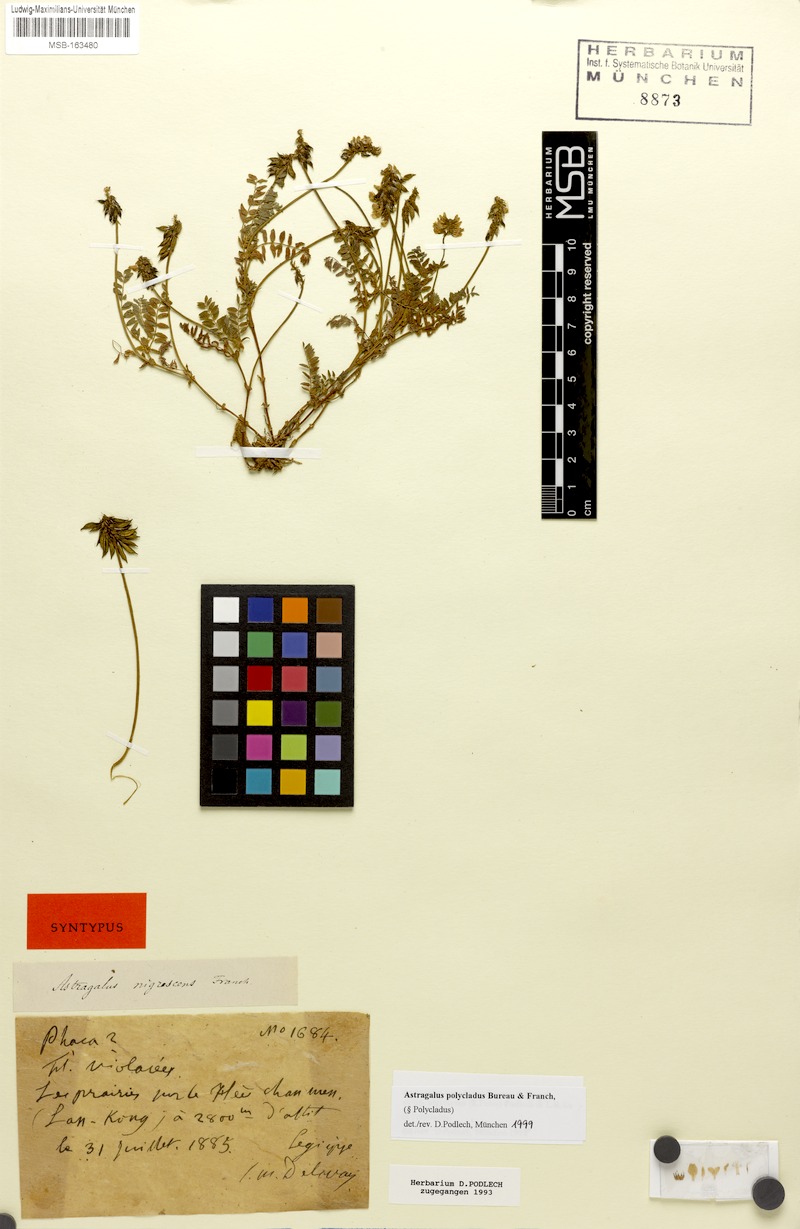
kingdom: Plantae
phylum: Tracheophyta
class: Magnoliopsida
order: Fabales
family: Fabaceae
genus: Astragalus
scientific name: Astragalus polycladus
